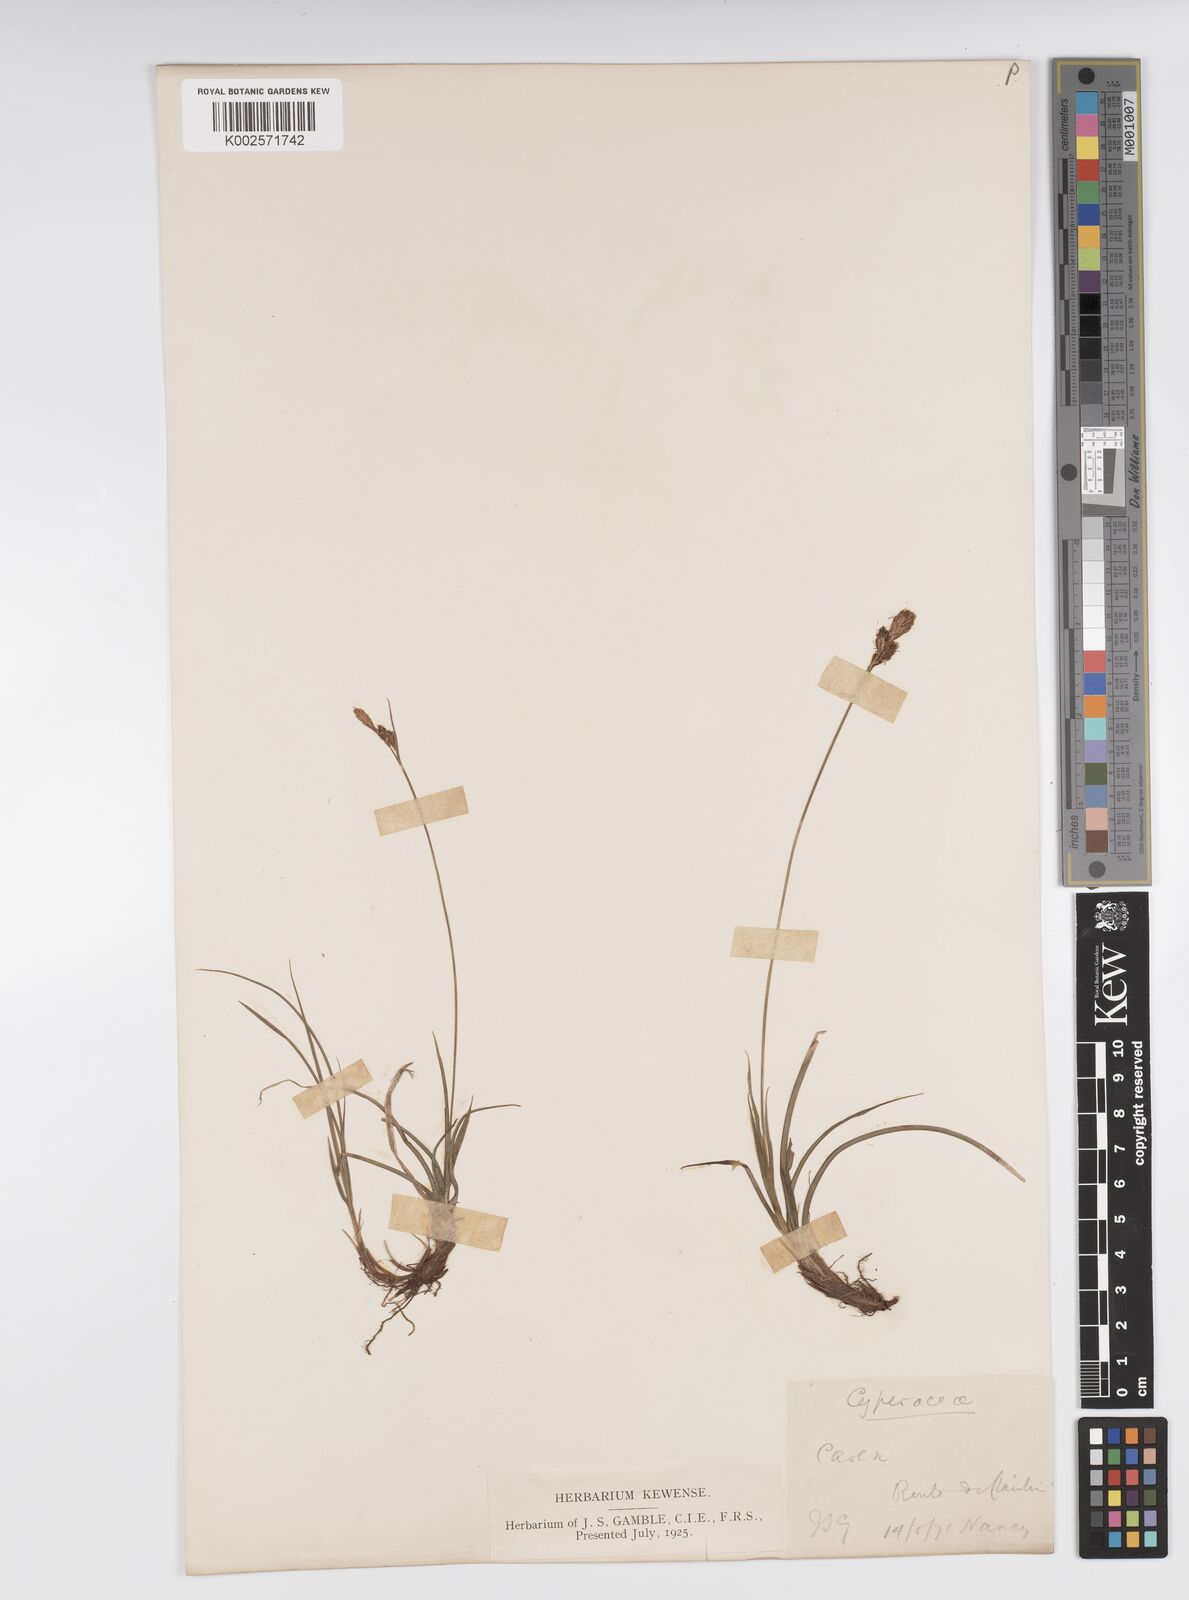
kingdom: Plantae
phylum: Tracheophyta
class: Liliopsida
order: Poales
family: Cyperaceae
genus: Carex
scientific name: Carex caryophyllea
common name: Spring sedge
